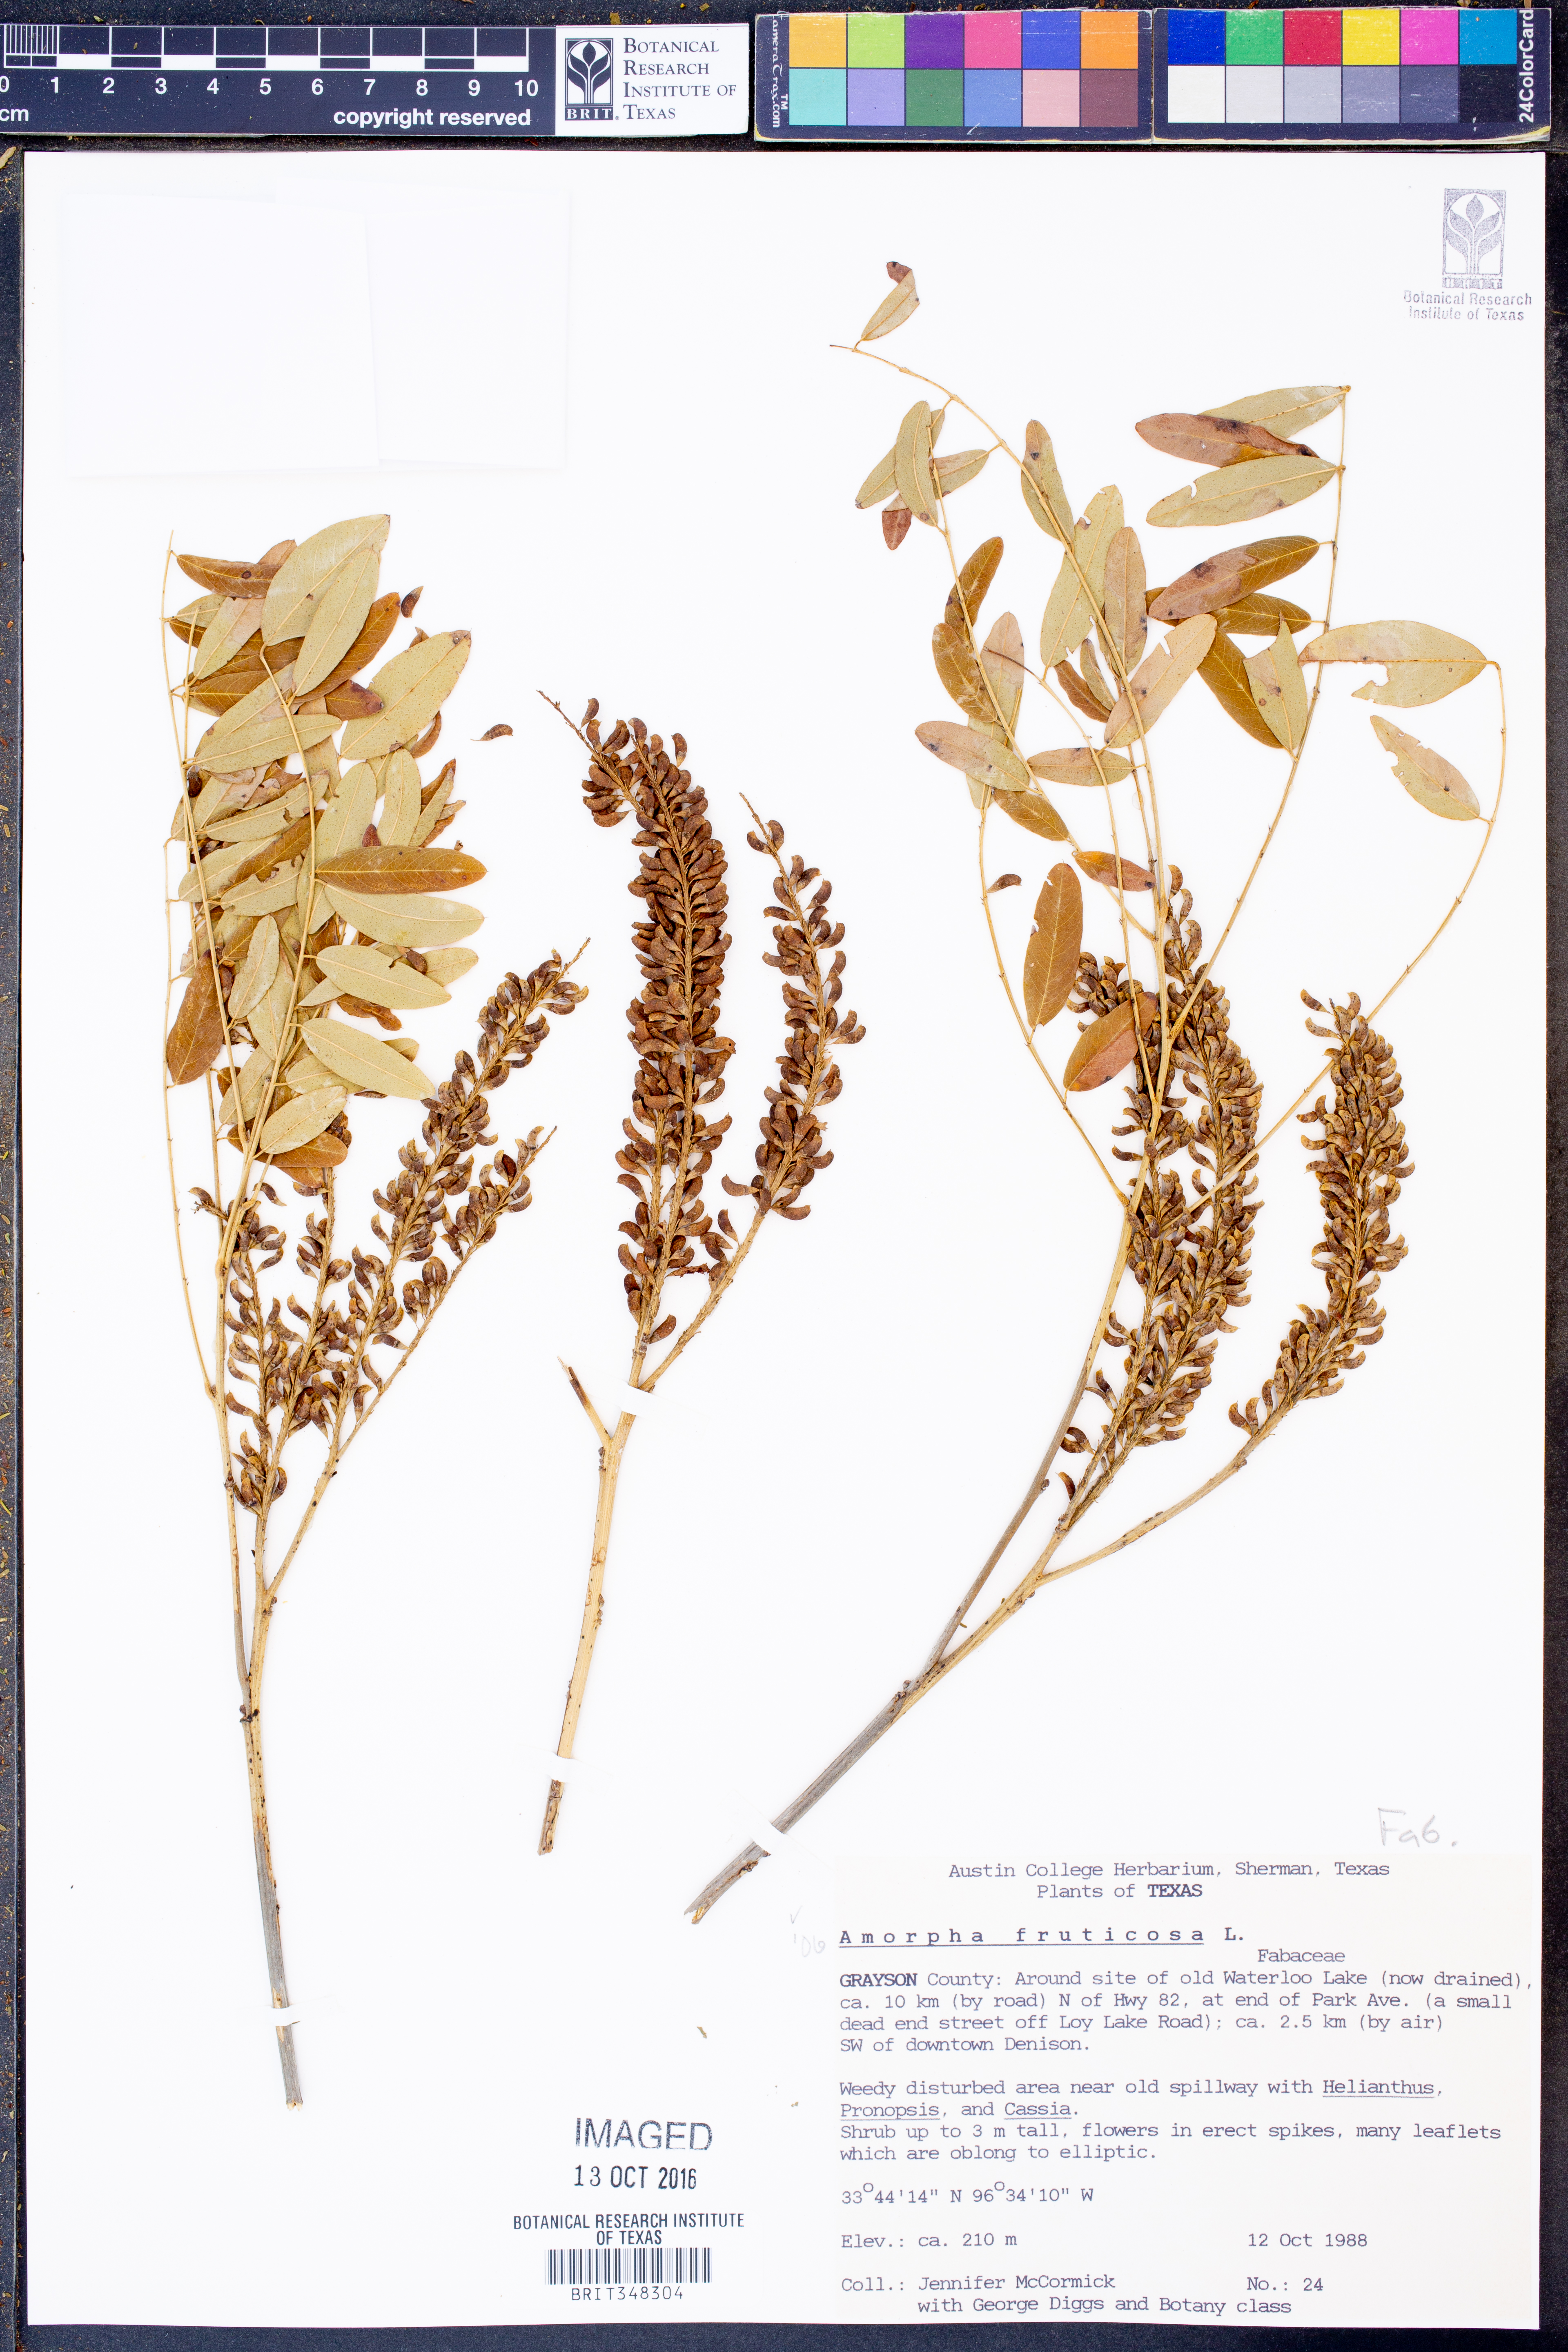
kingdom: Plantae
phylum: Tracheophyta
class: Magnoliopsida
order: Fabales
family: Fabaceae
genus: Amorpha
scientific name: Amorpha fruticosa
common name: False indigo
